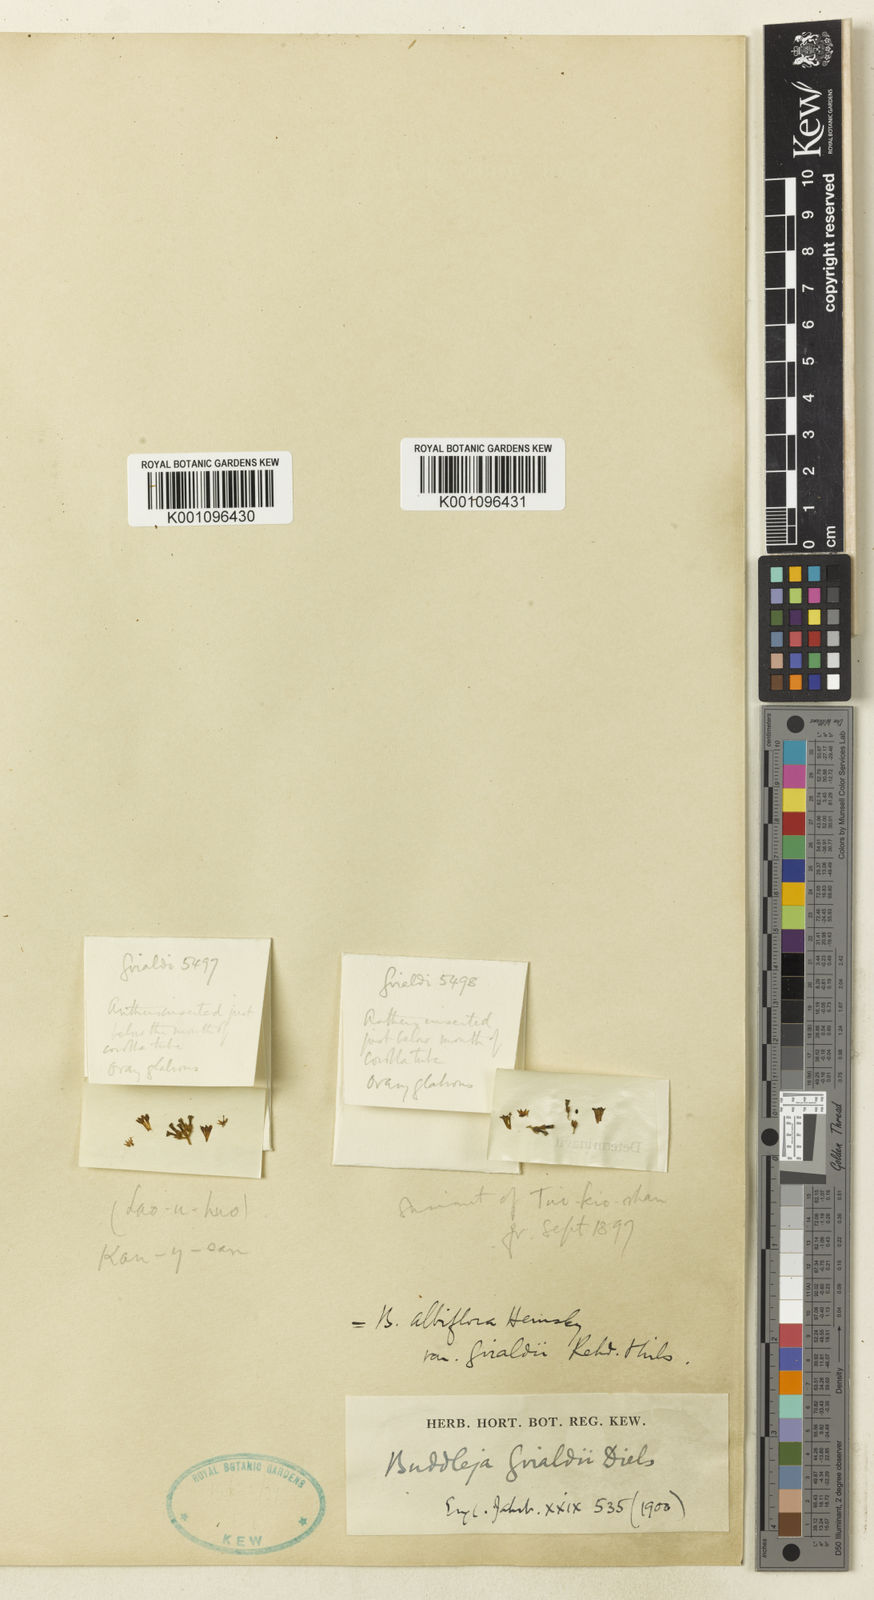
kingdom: Plantae
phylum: Tracheophyta
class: Magnoliopsida
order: Lamiales
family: Scrophulariaceae
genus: Buddleja
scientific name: Buddleja albiflora
